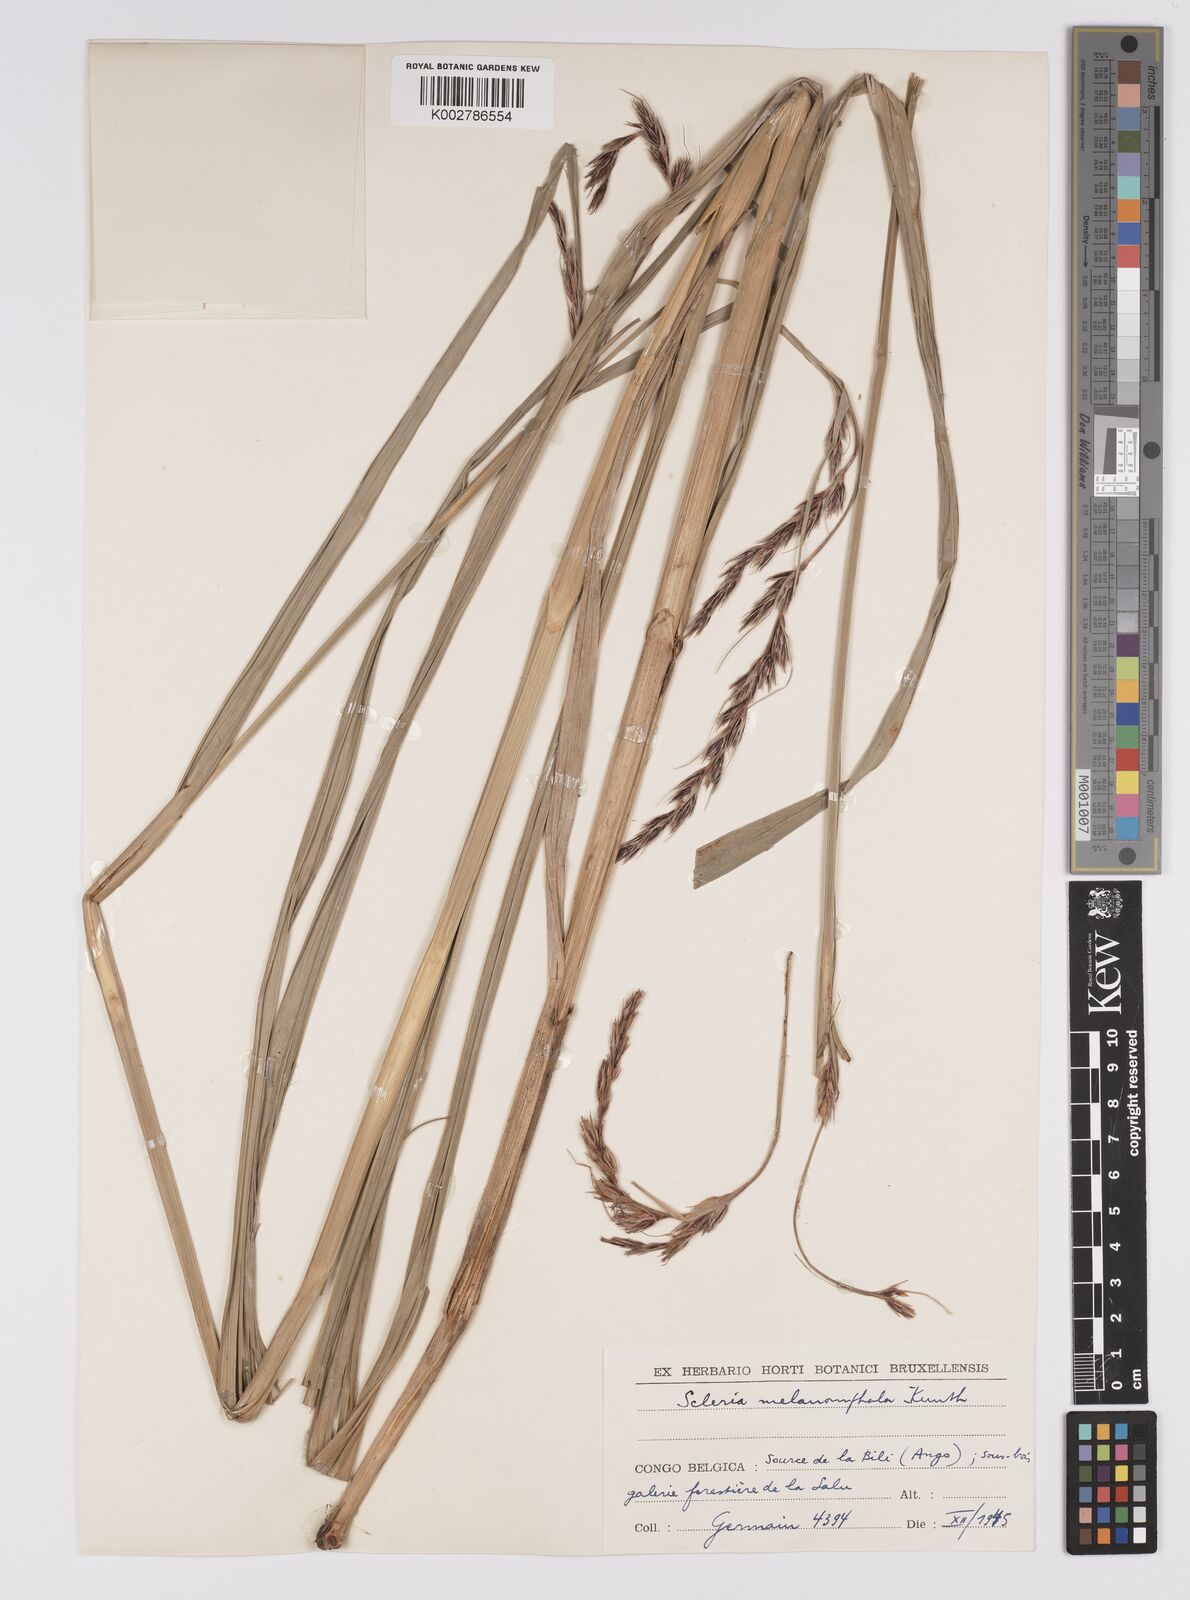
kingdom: Plantae
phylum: Tracheophyta
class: Liliopsida
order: Poales
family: Cyperaceae
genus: Scleria
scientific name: Scleria melanomphala
